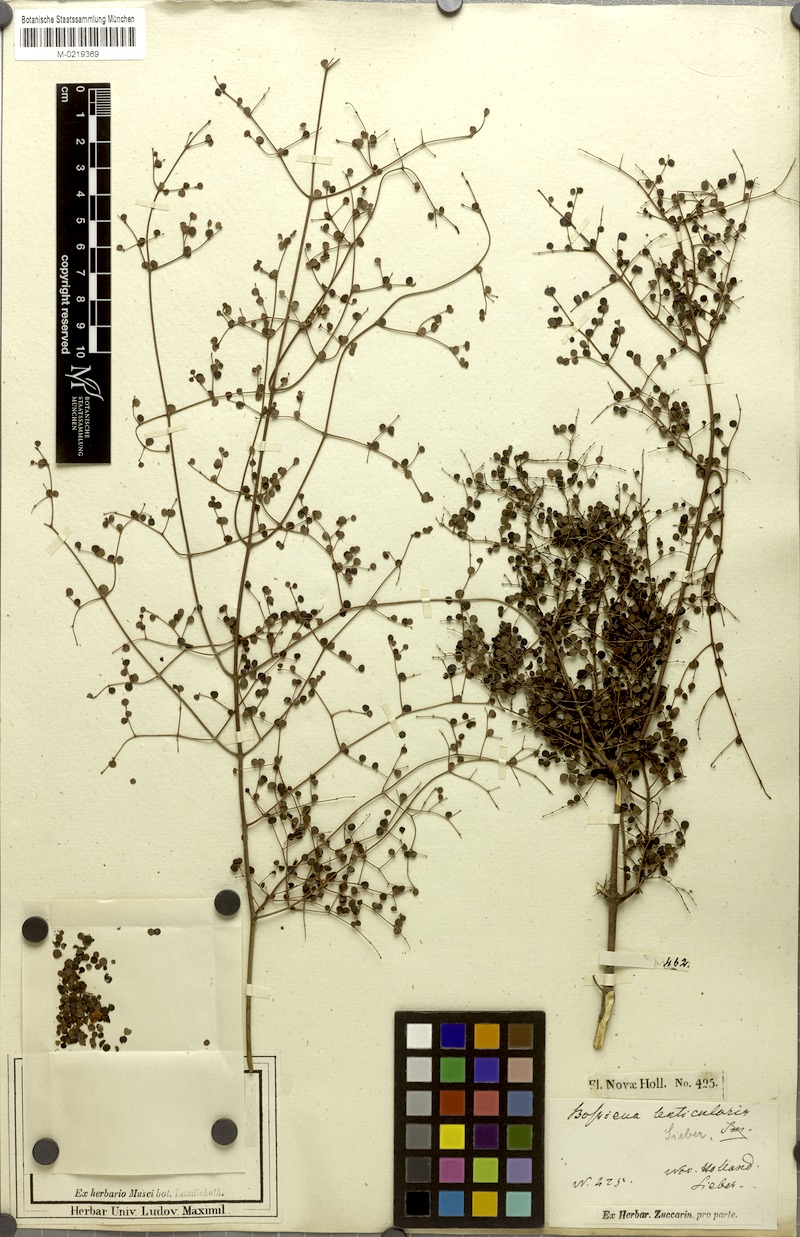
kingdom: Plantae
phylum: Tracheophyta
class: Magnoliopsida
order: Fabales
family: Fabaceae
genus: Bossiaea
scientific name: Bossiaea lenticularis
